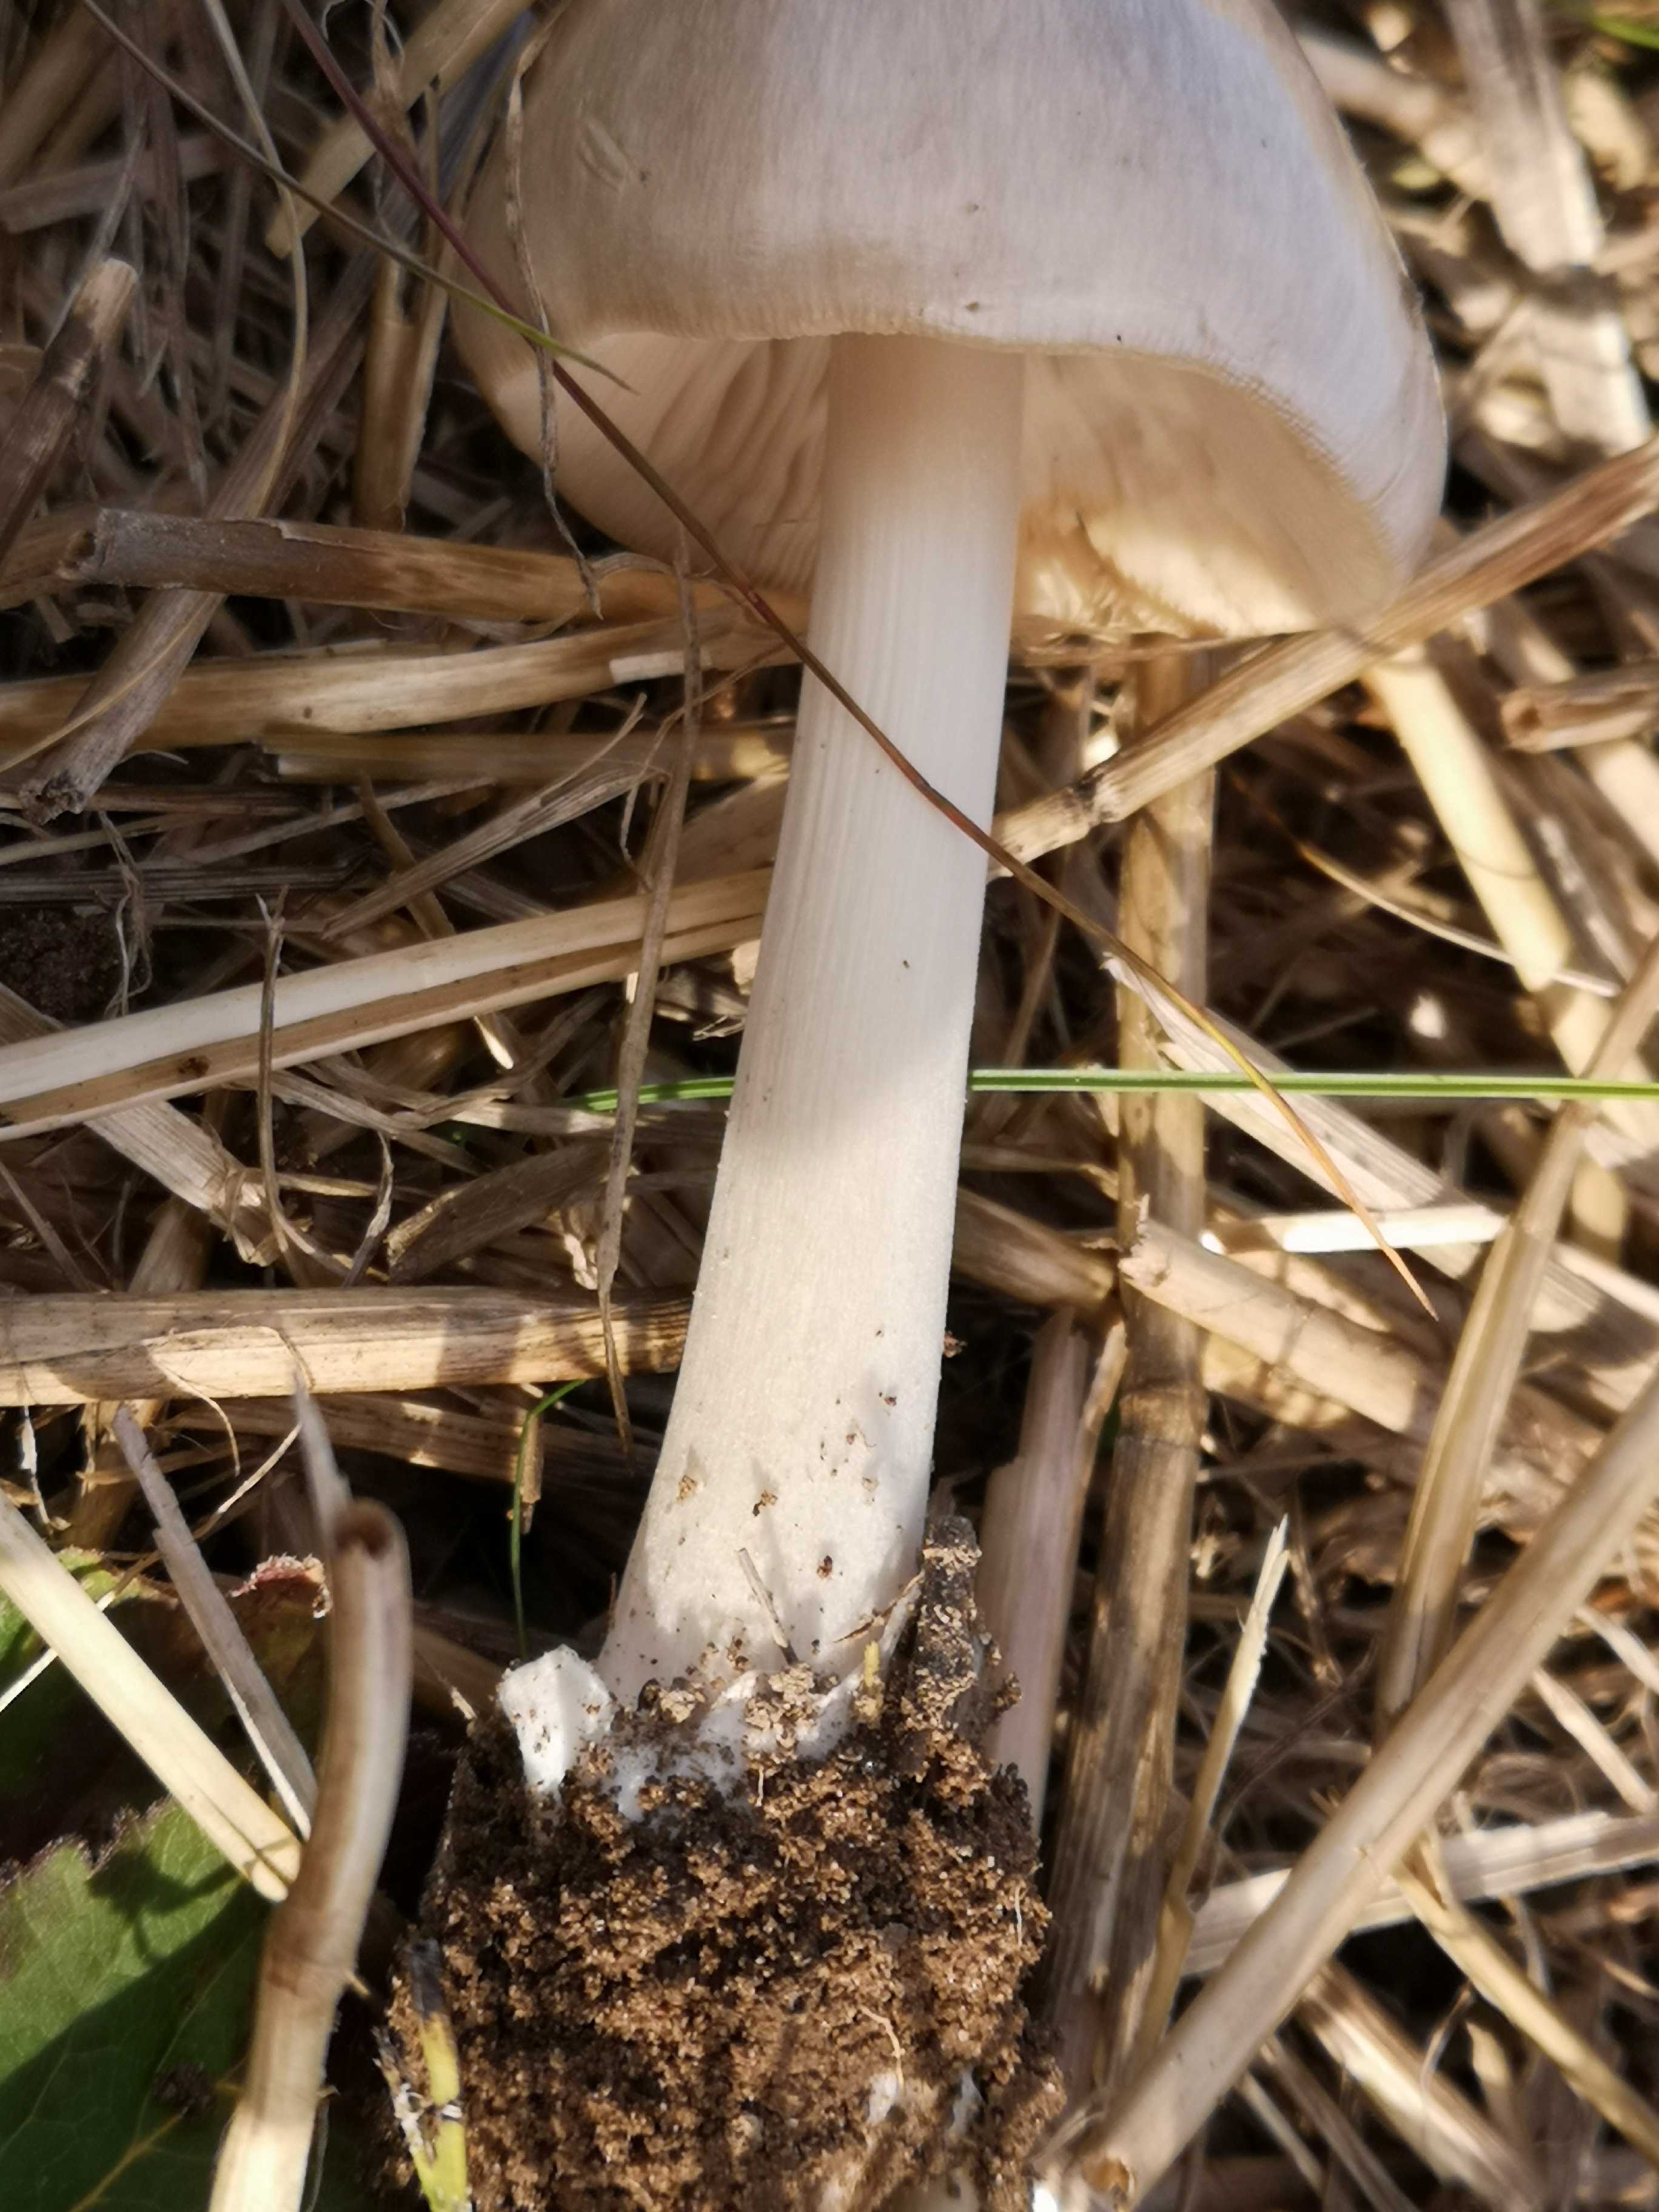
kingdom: Fungi
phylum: Basidiomycota
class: Agaricomycetes
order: Agaricales
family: Pluteaceae
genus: Volvopluteus
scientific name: Volvopluteus gloiocephalus
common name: høj posesvamp
